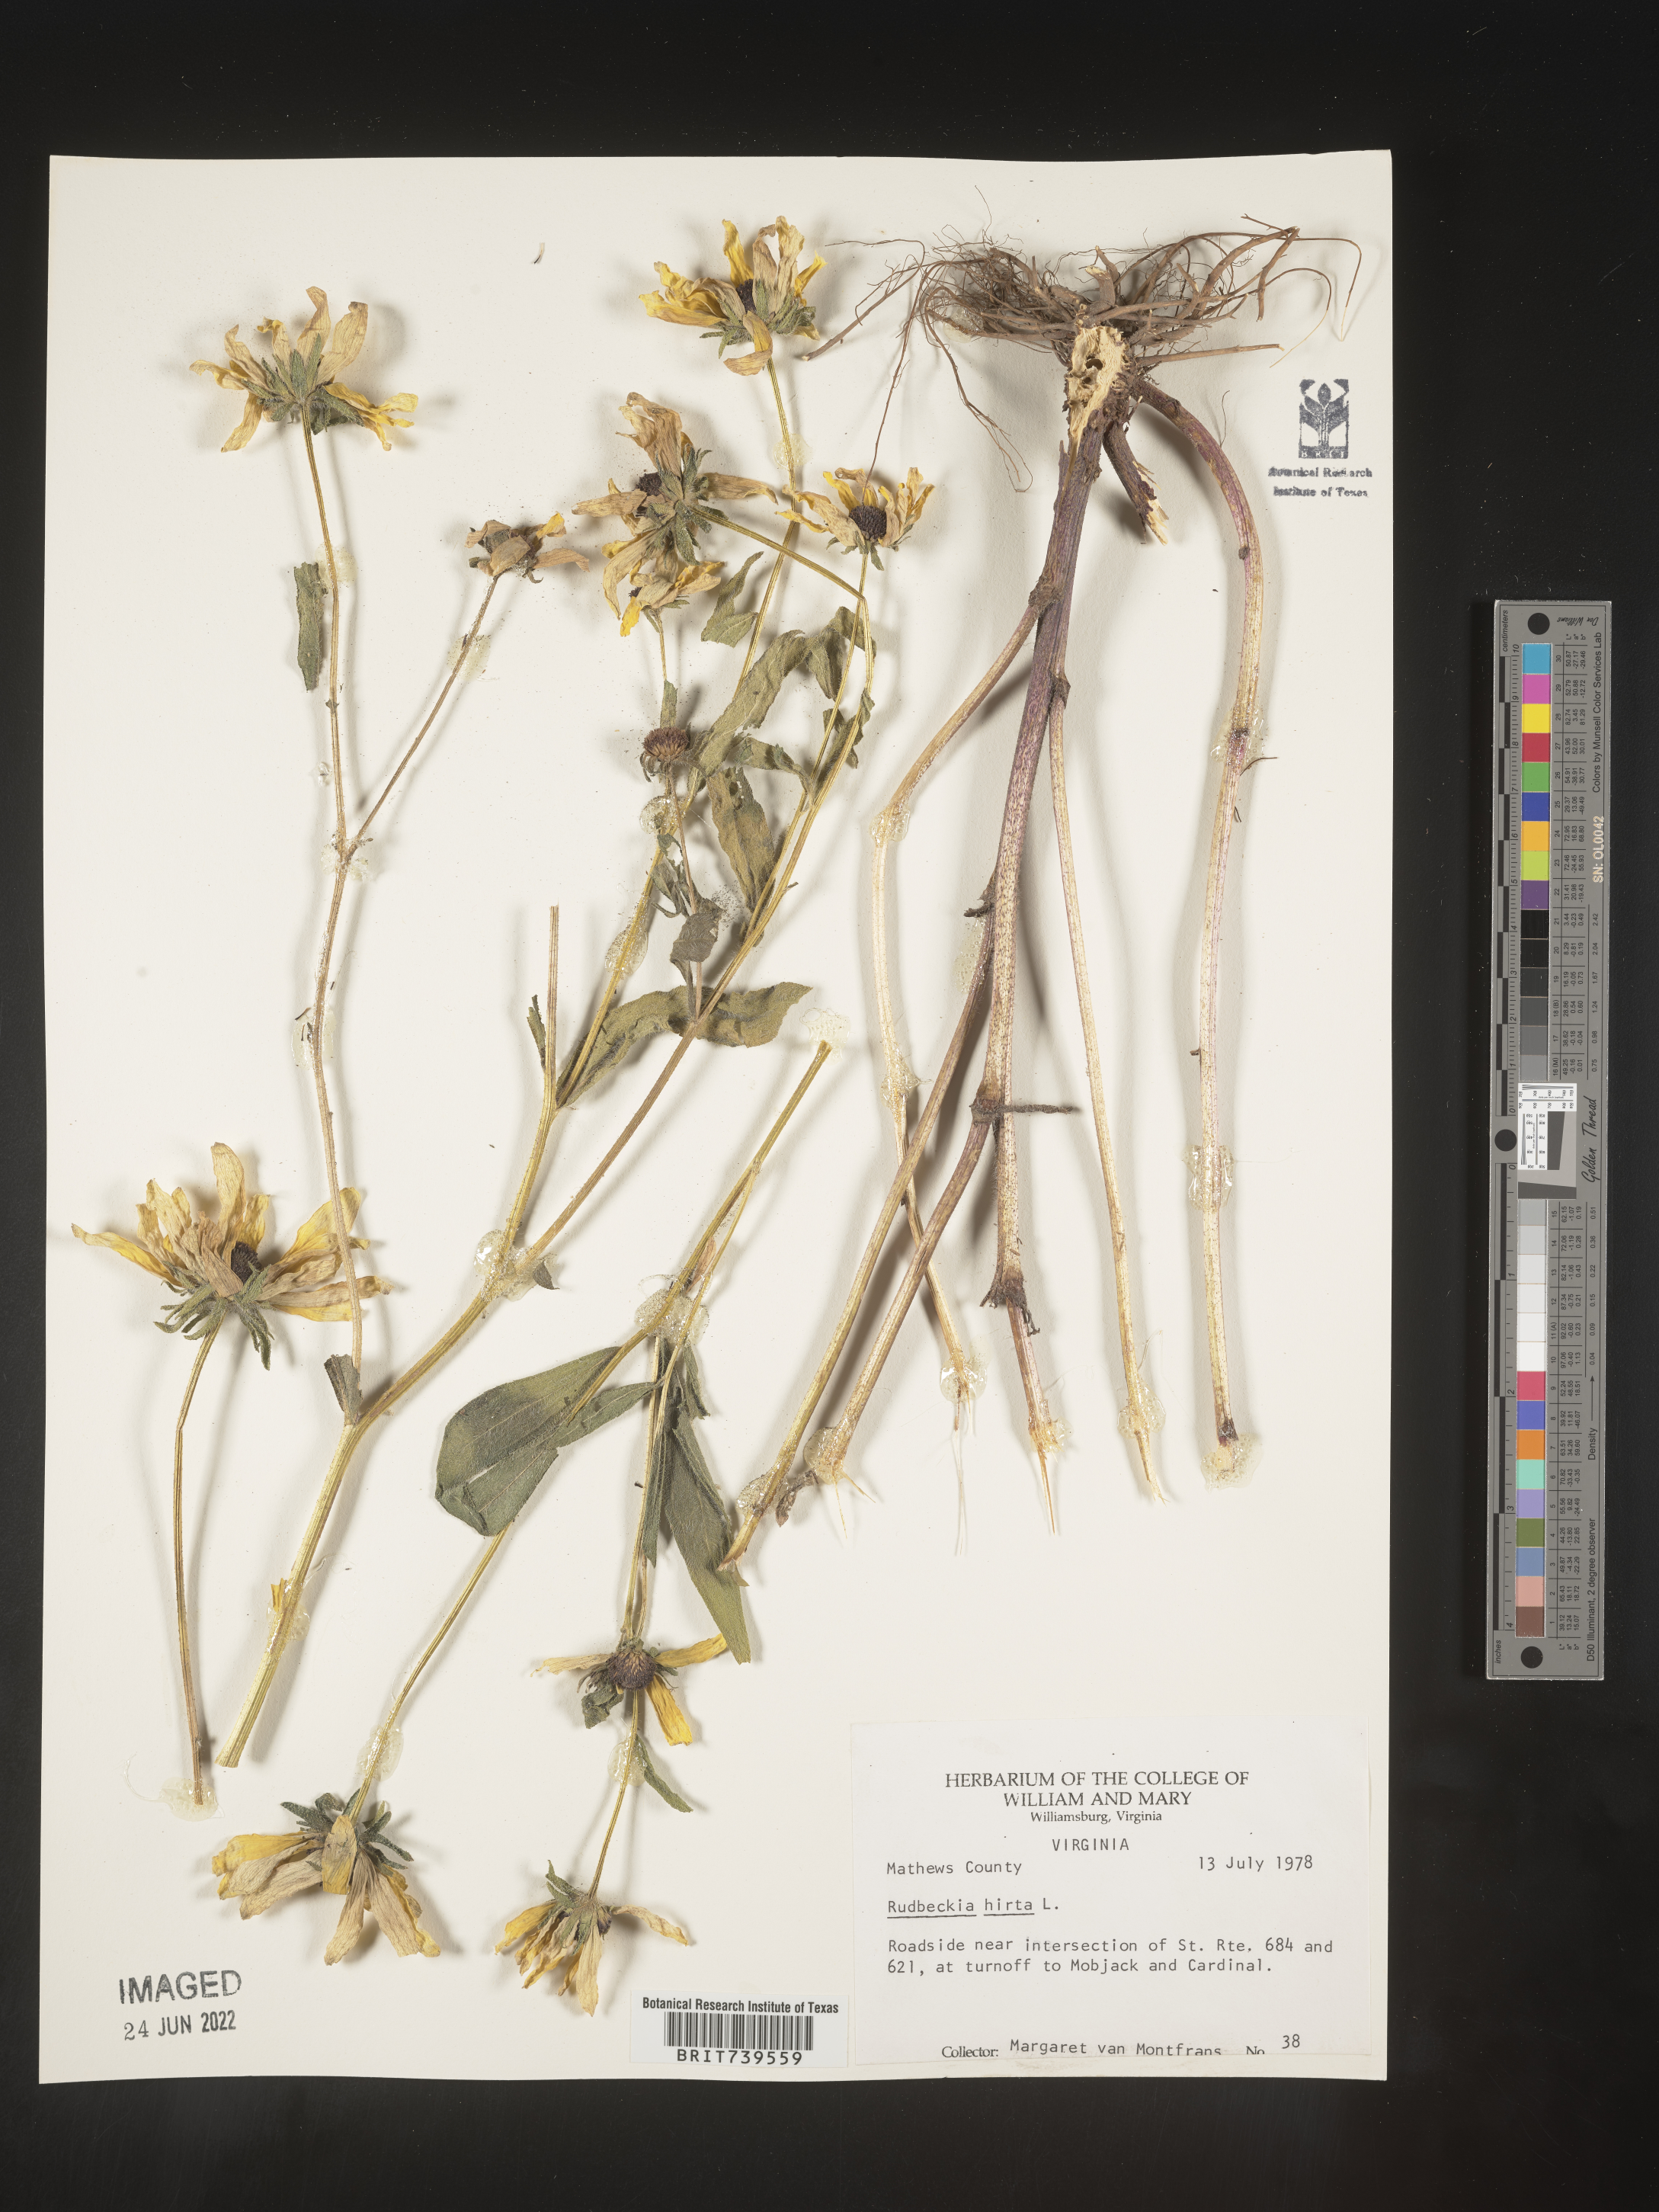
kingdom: Plantae
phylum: Tracheophyta
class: Magnoliopsida
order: Asterales
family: Asteraceae
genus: Rudbeckia
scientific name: Rudbeckia hirta
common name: Black-eyed-susan
